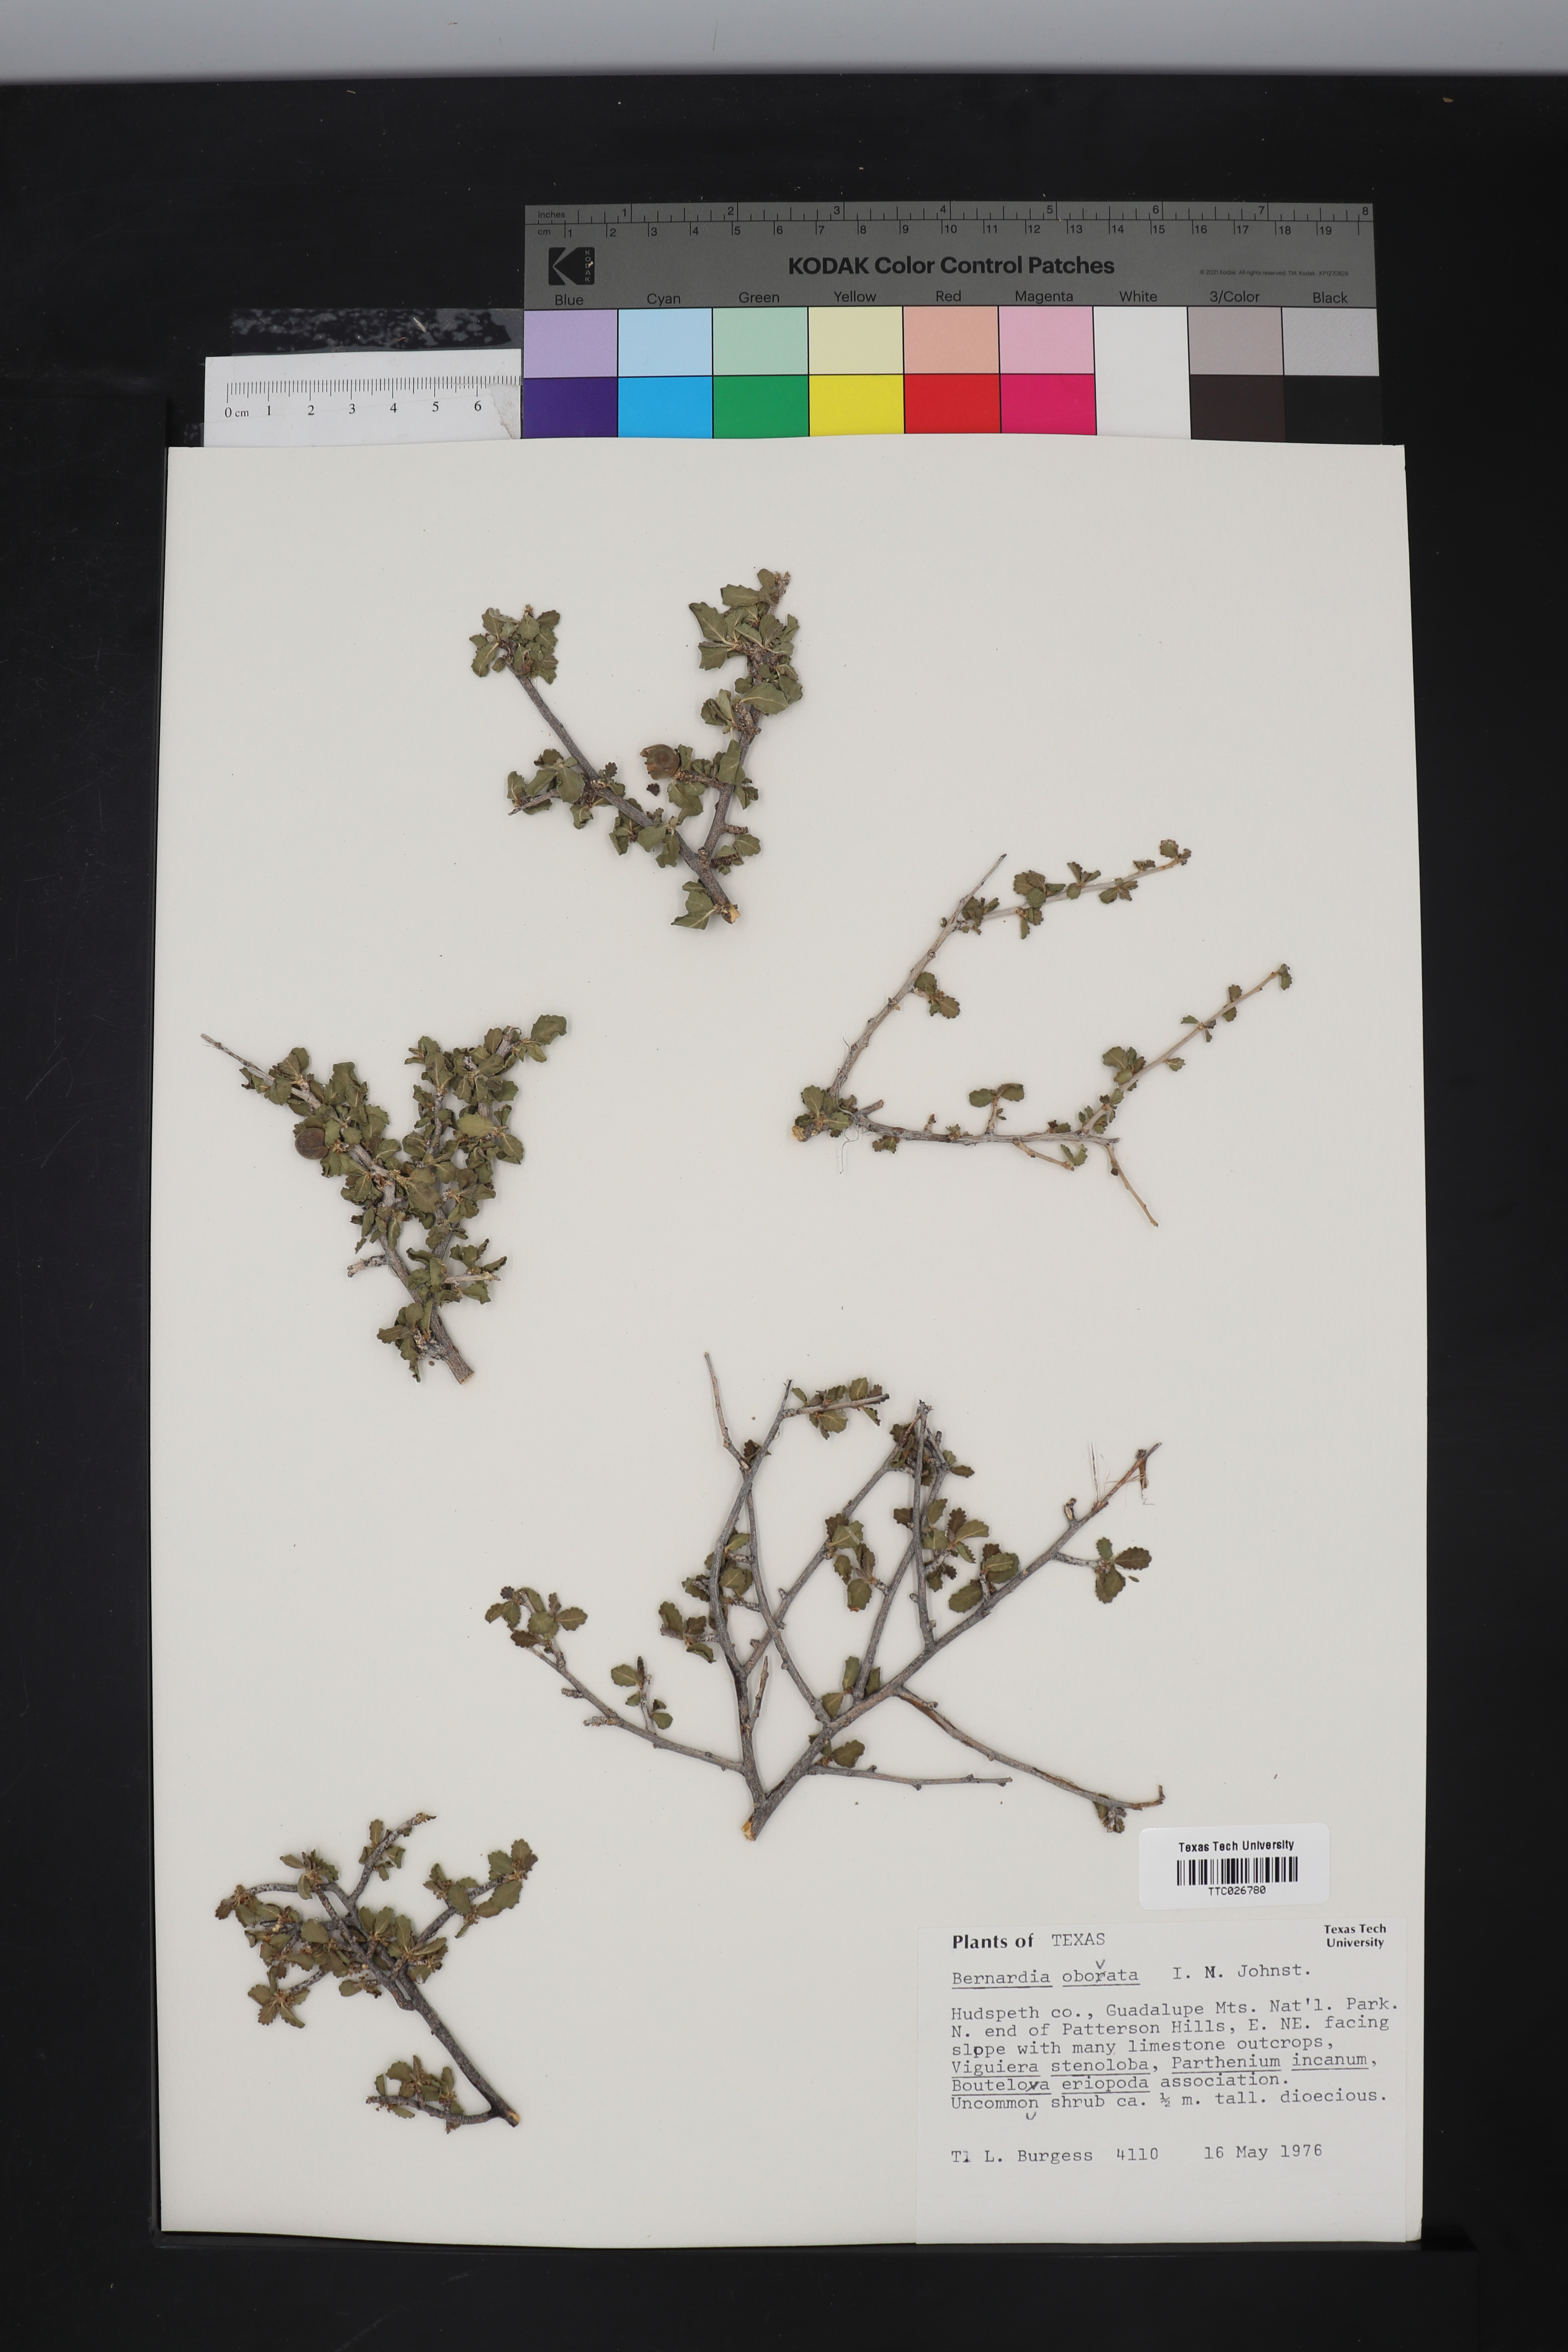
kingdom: Plantae
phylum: Tracheophyta
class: Magnoliopsida
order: Malpighiales
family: Euphorbiaceae
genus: Bernardia
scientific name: Bernardia obovata
